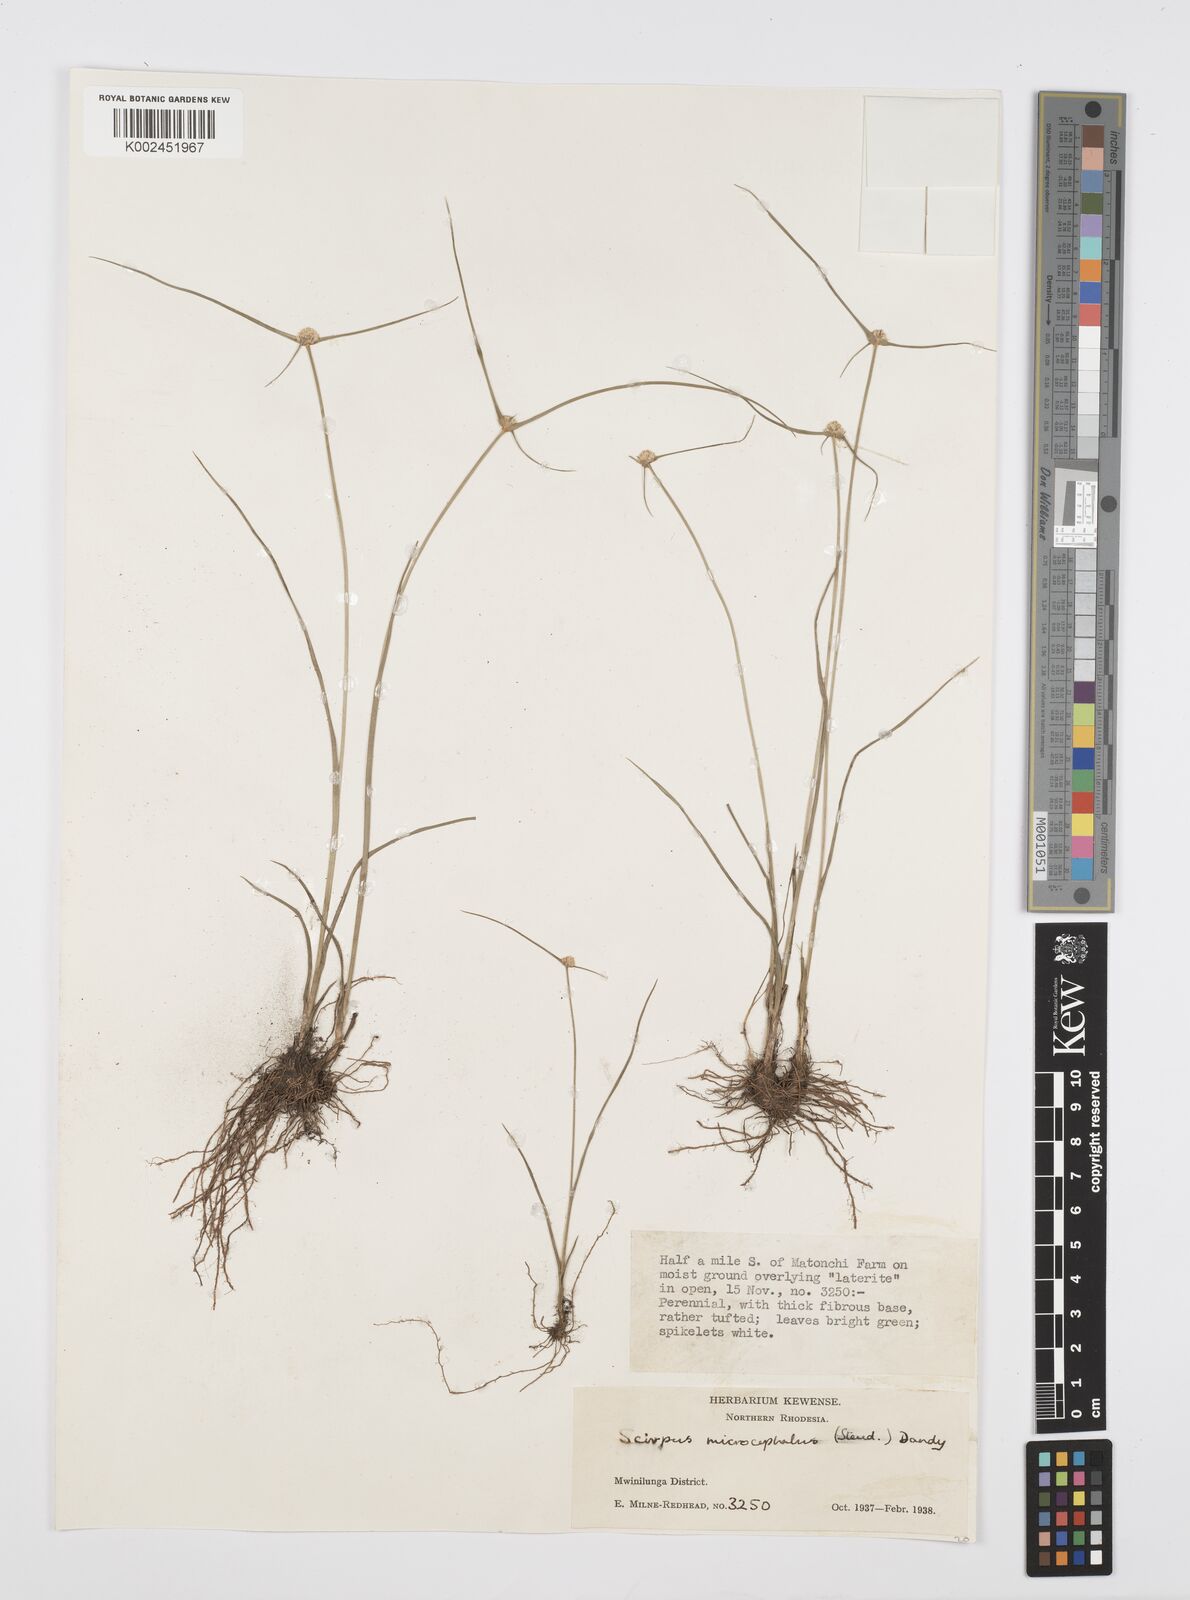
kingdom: Plantae
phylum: Tracheophyta
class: Liliopsida
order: Poales
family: Cyperaceae
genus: Cyperus
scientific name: Cyperus microcephalus
